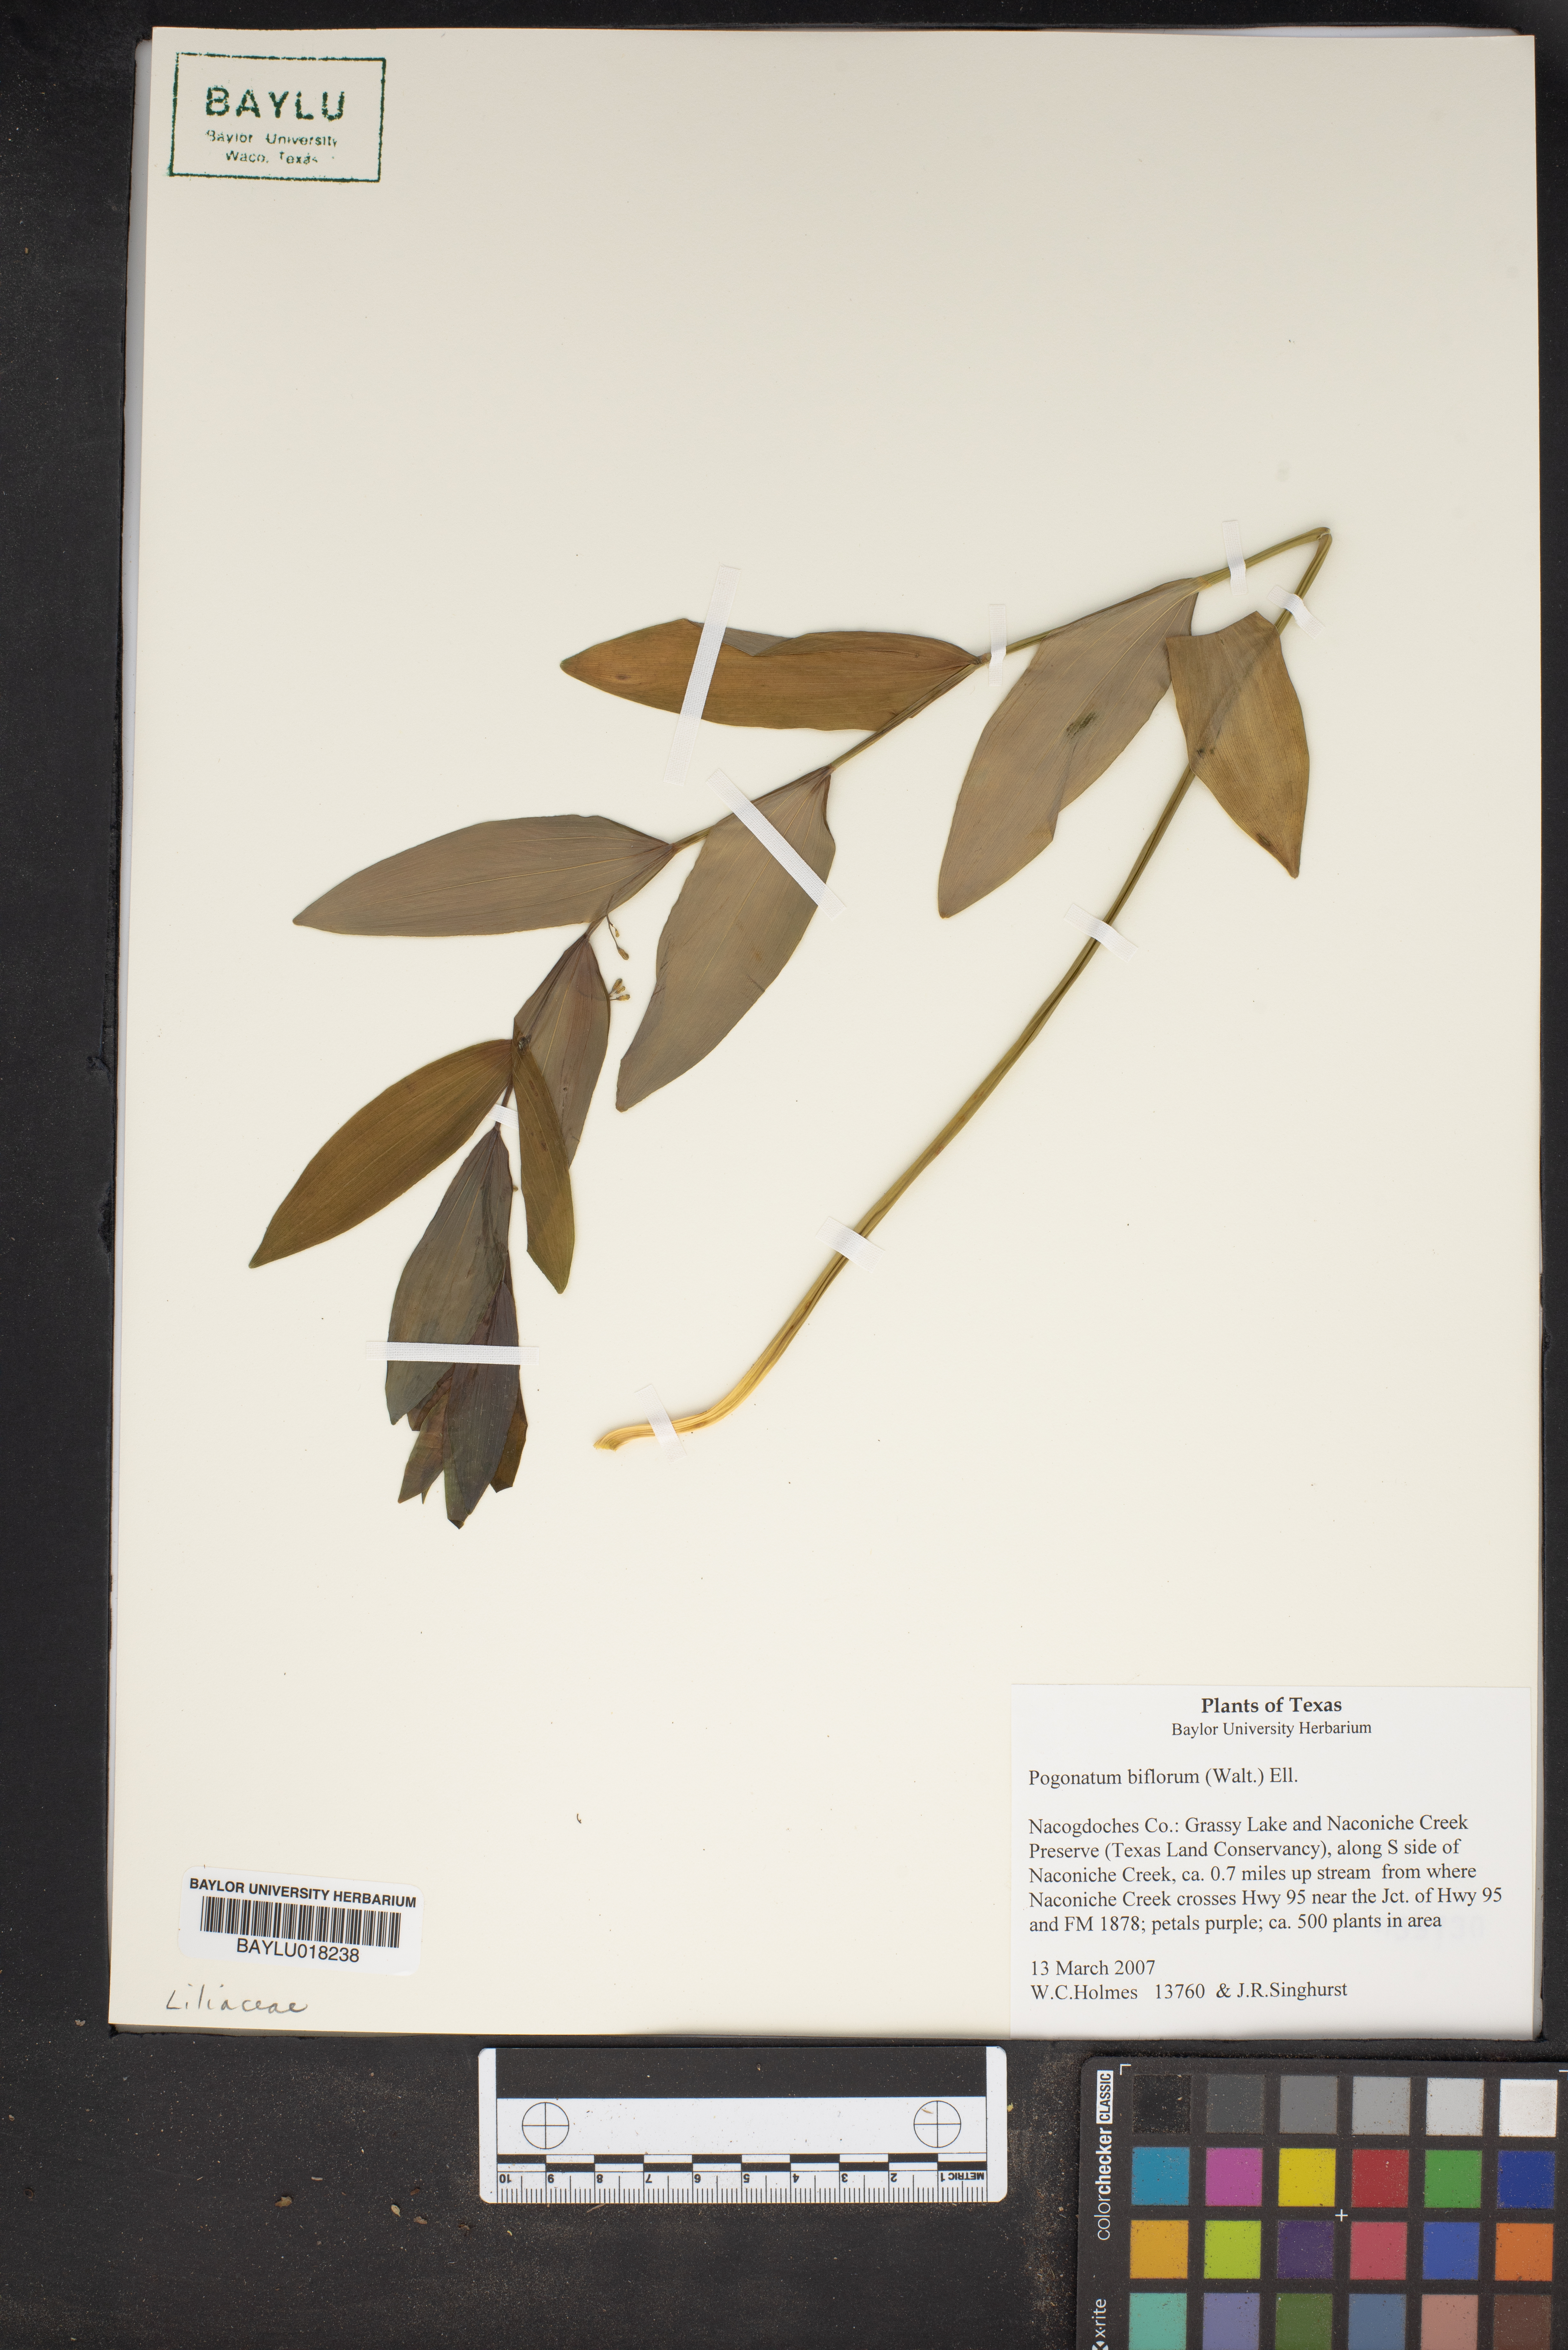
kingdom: Plantae
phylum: Tracheophyta
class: Liliopsida
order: Asparagales
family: Asparagaceae
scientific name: Asparagaceae
